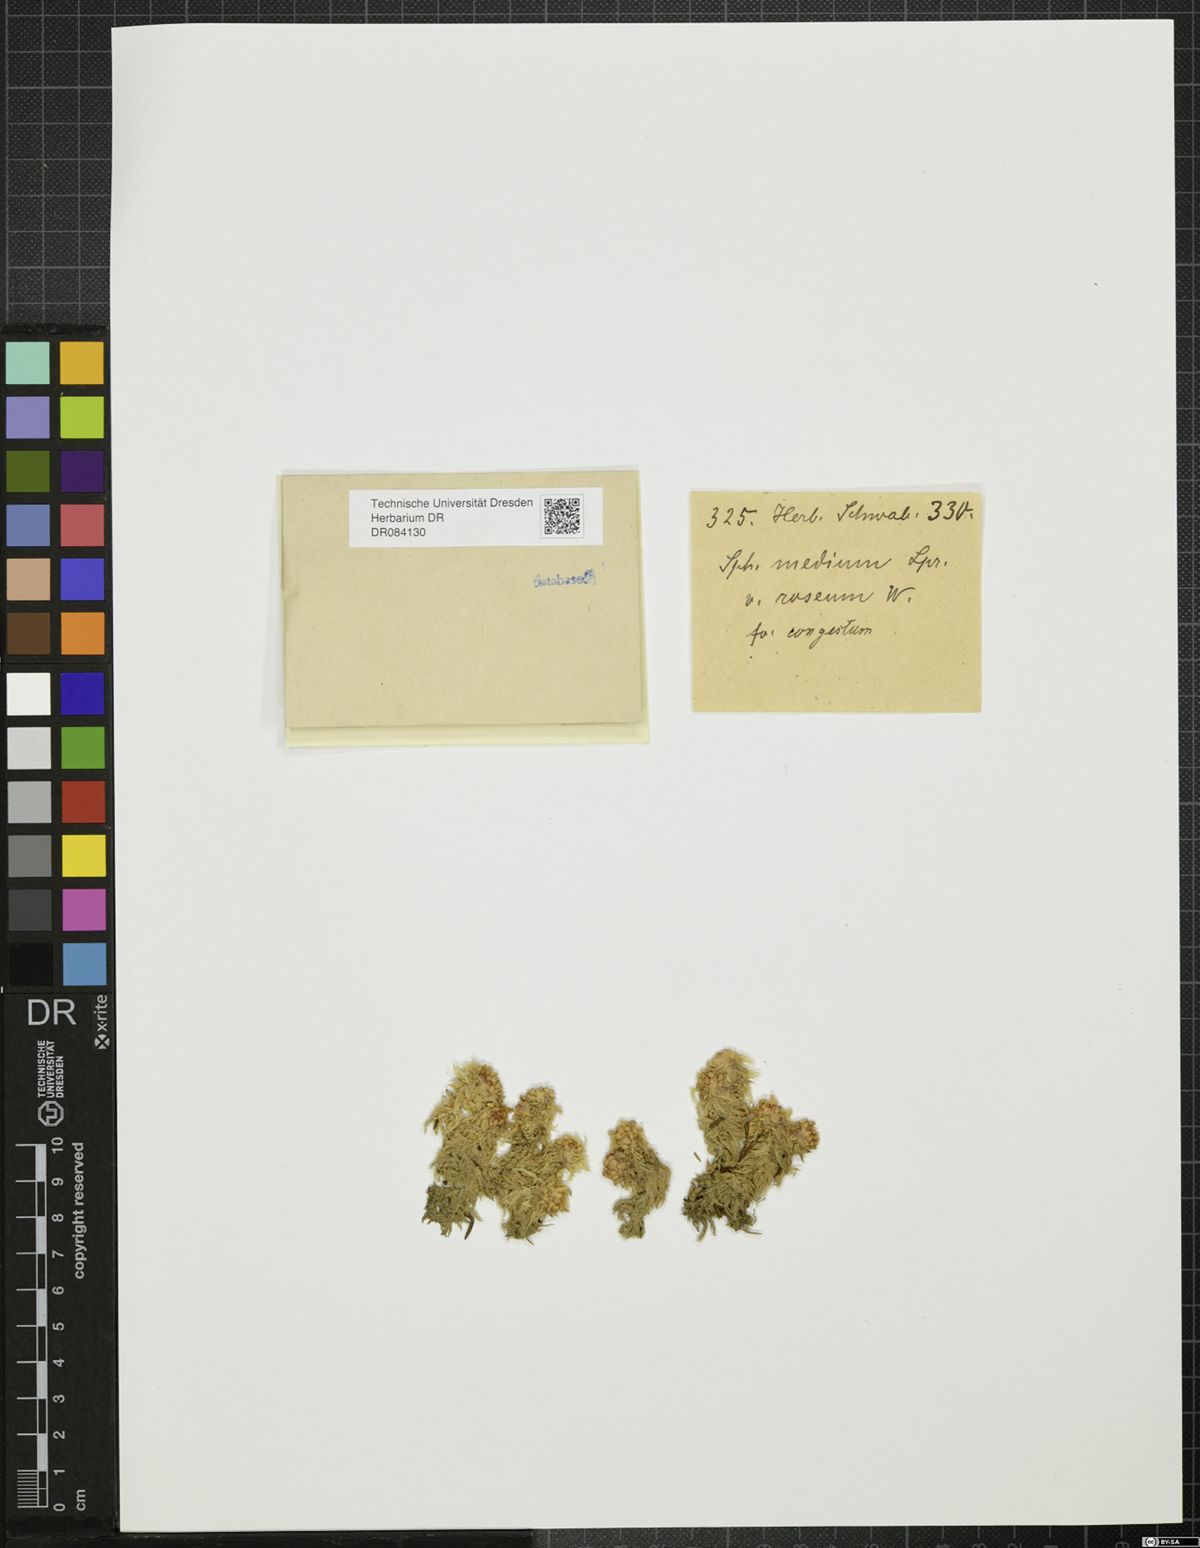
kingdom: Plantae
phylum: Bryophyta
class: Sphagnopsida
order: Sphagnales
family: Sphagnaceae
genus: Sphagnum
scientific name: Sphagnum
